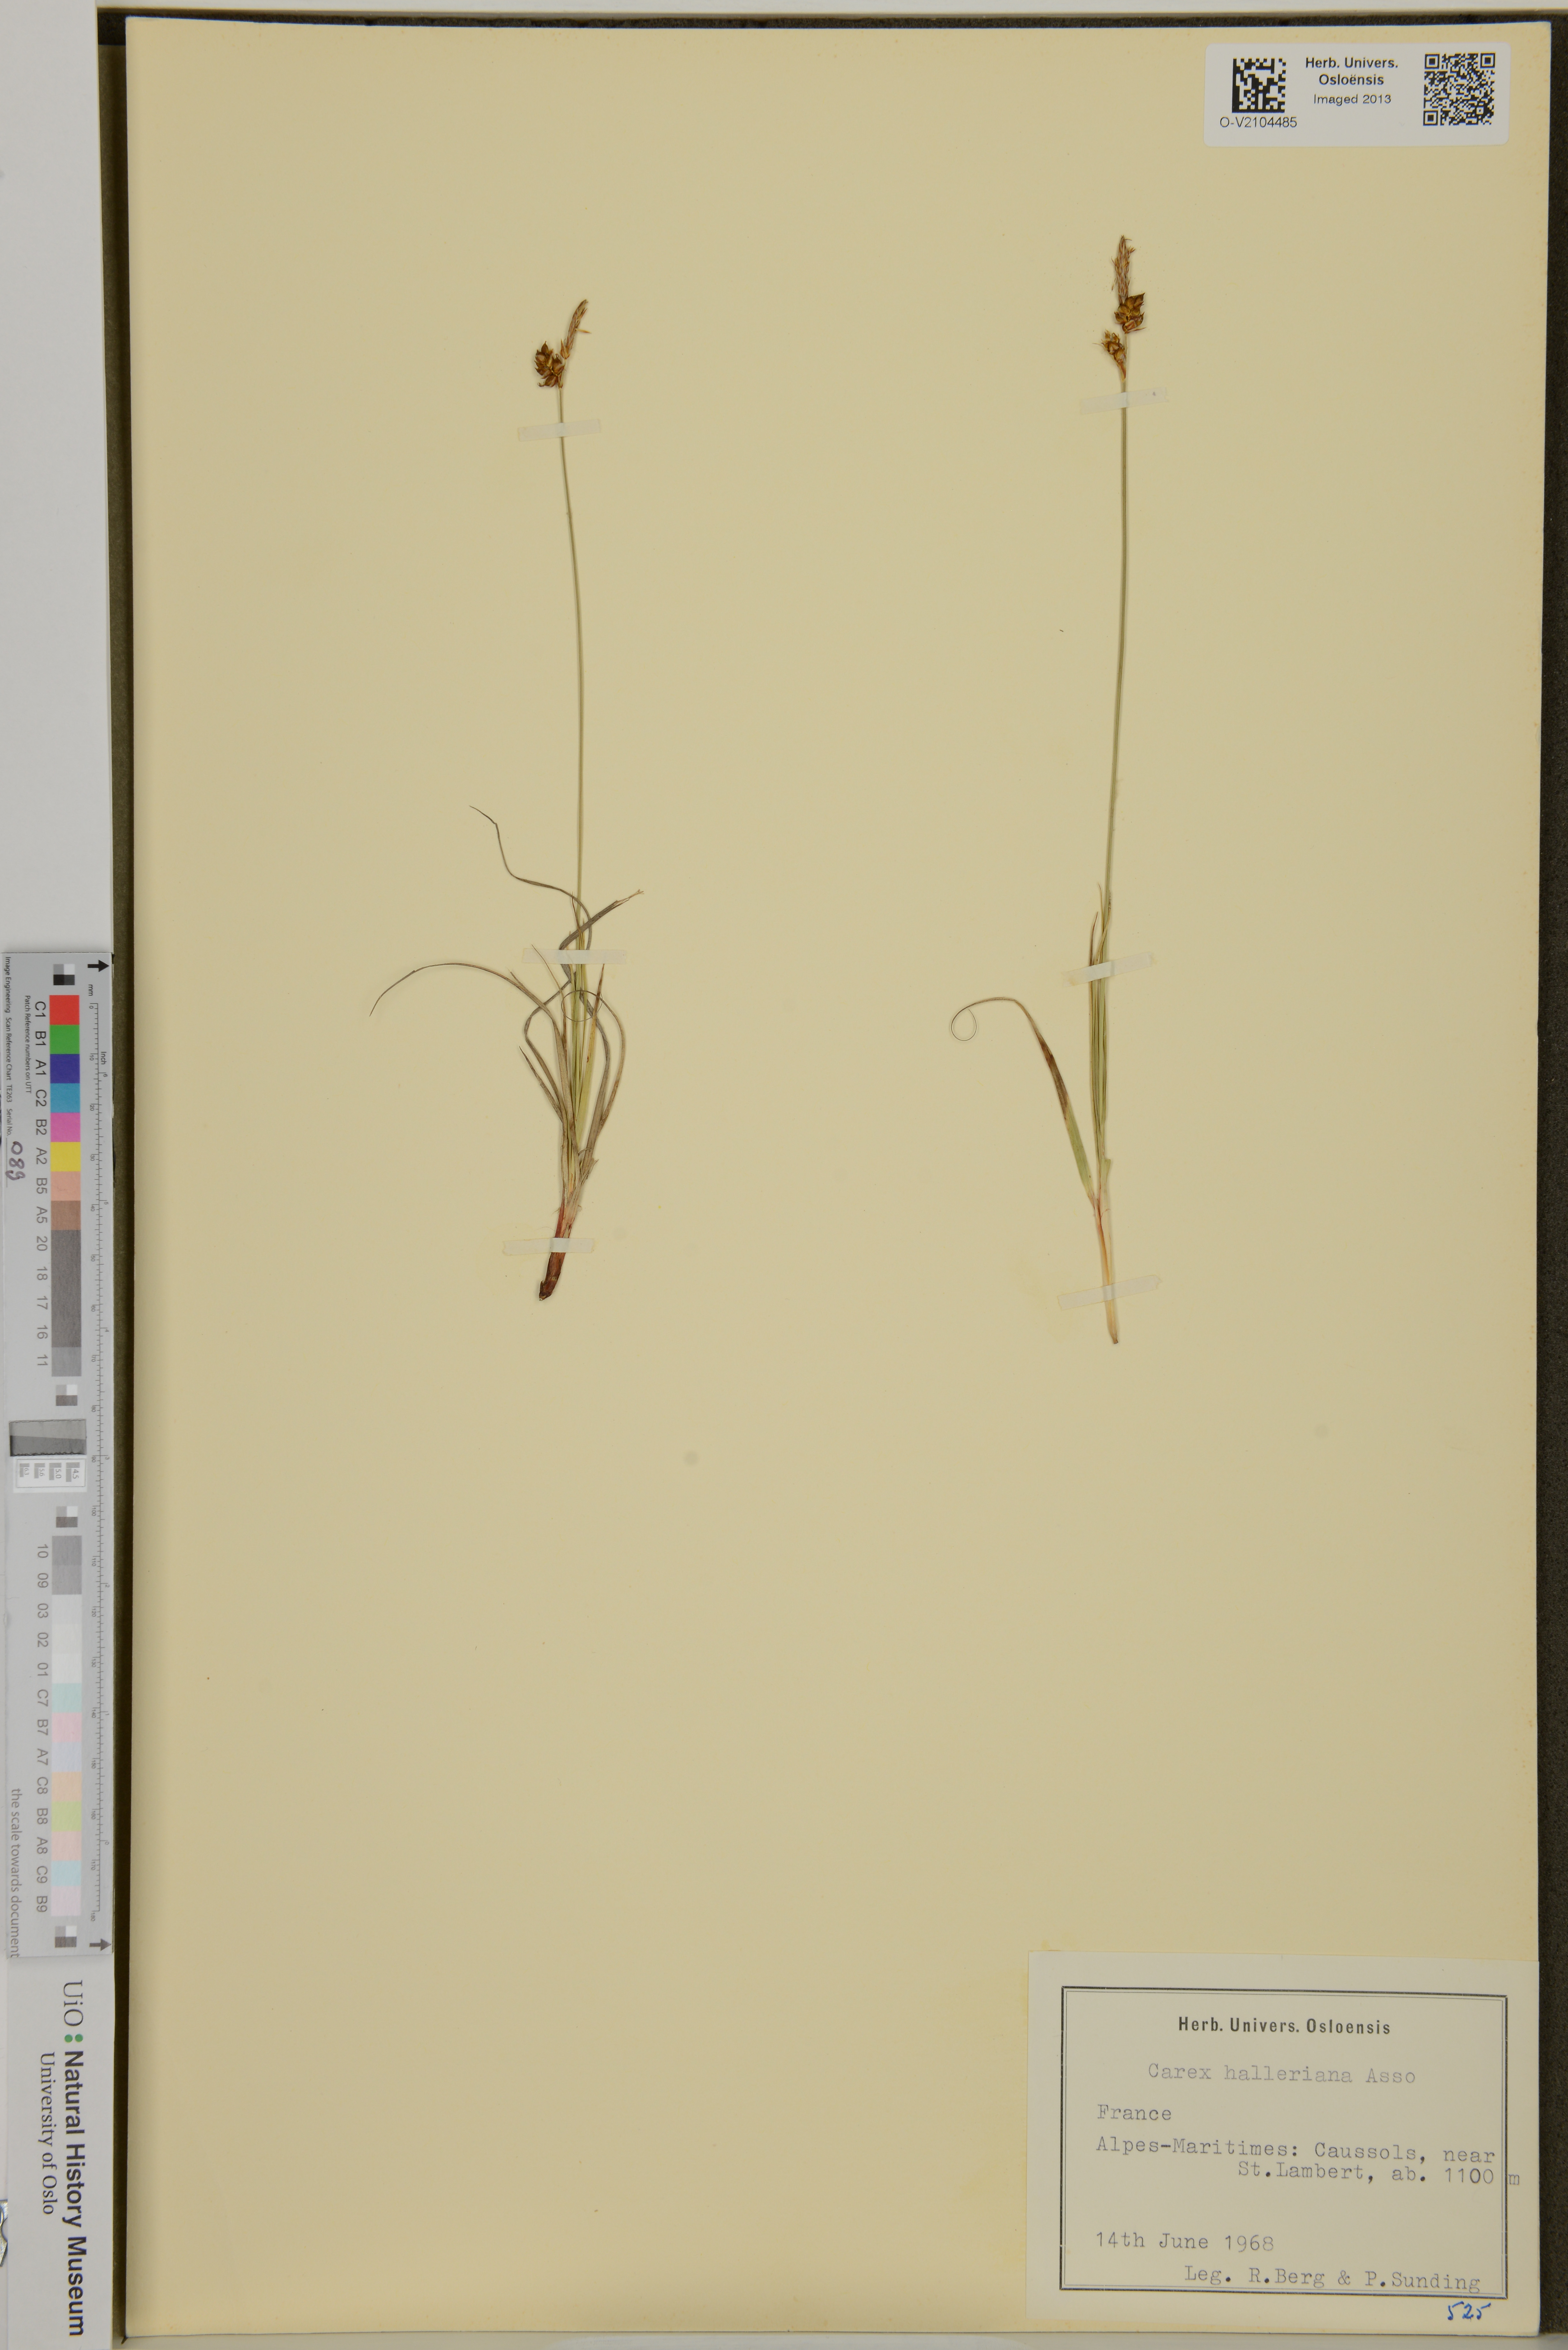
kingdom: Plantae
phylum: Tracheophyta
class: Liliopsida
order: Poales
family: Cyperaceae
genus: Carex
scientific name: Carex halleriana
